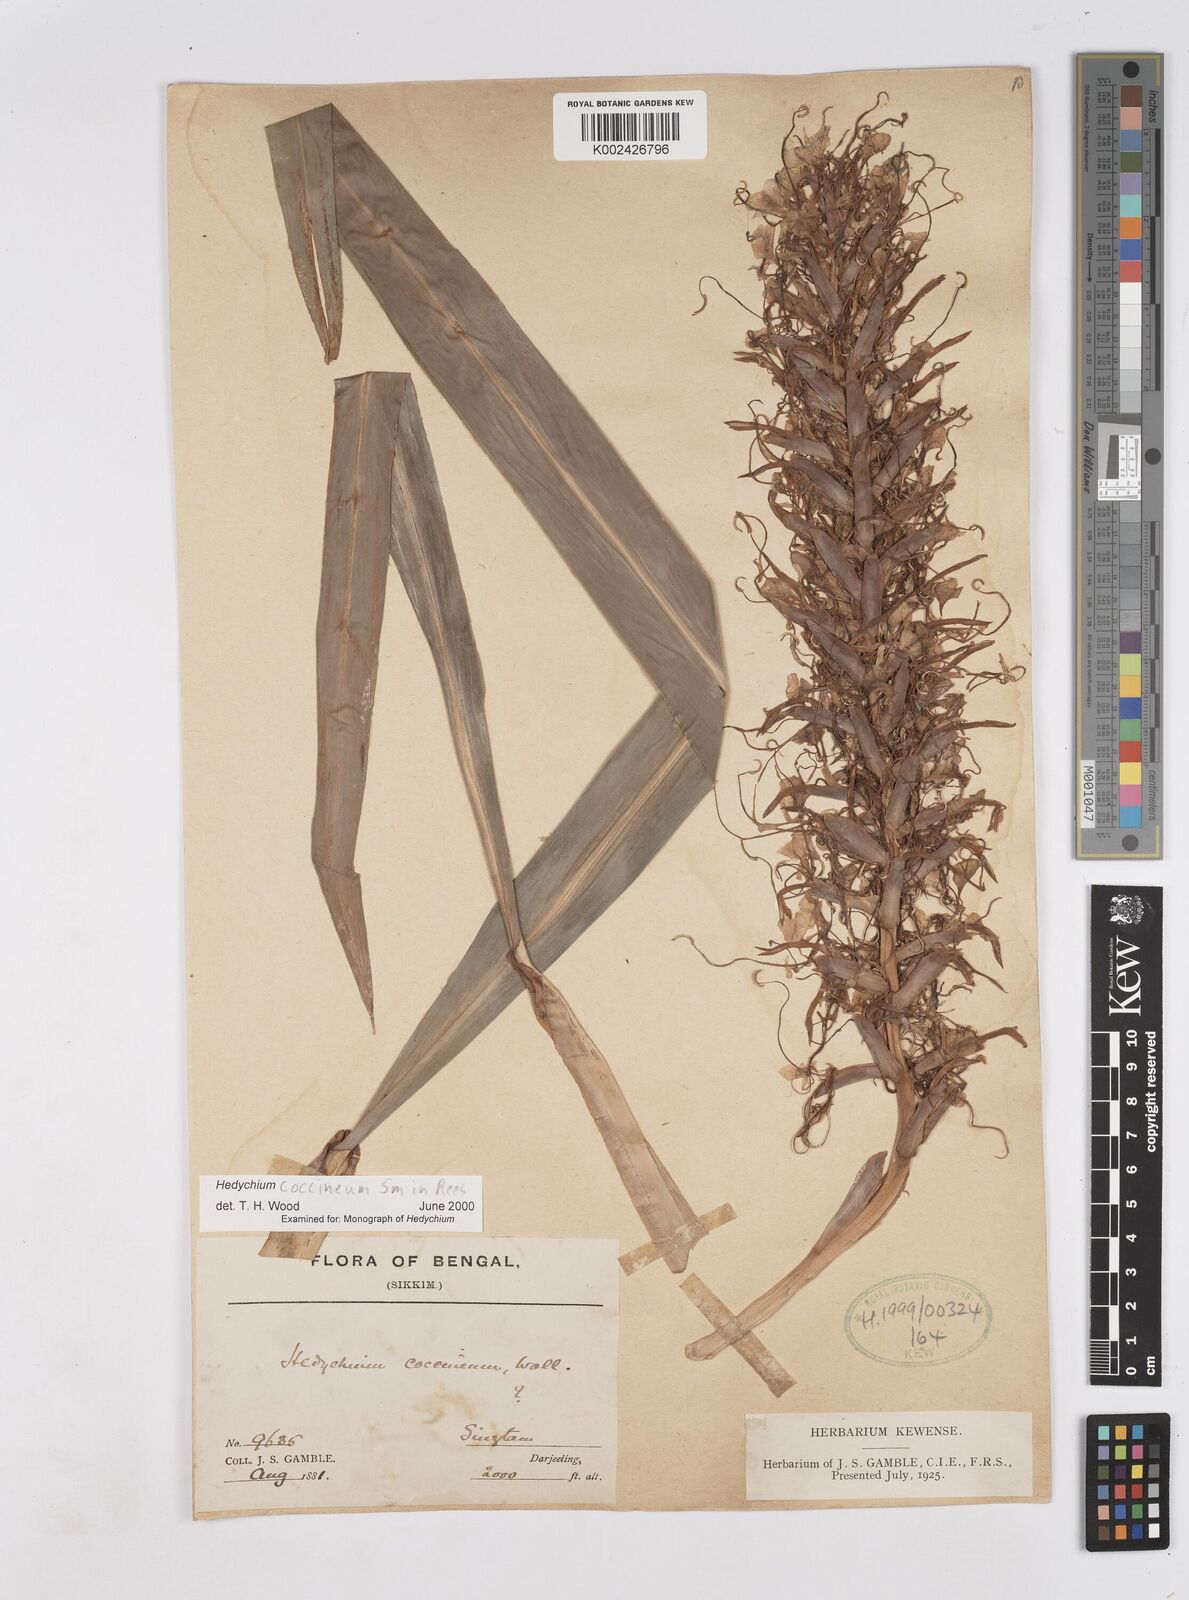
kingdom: Plantae
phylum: Tracheophyta
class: Liliopsida
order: Zingiberales
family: Zingiberaceae
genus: Hedychium
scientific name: Hedychium coccineum
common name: Red ginger-lily
